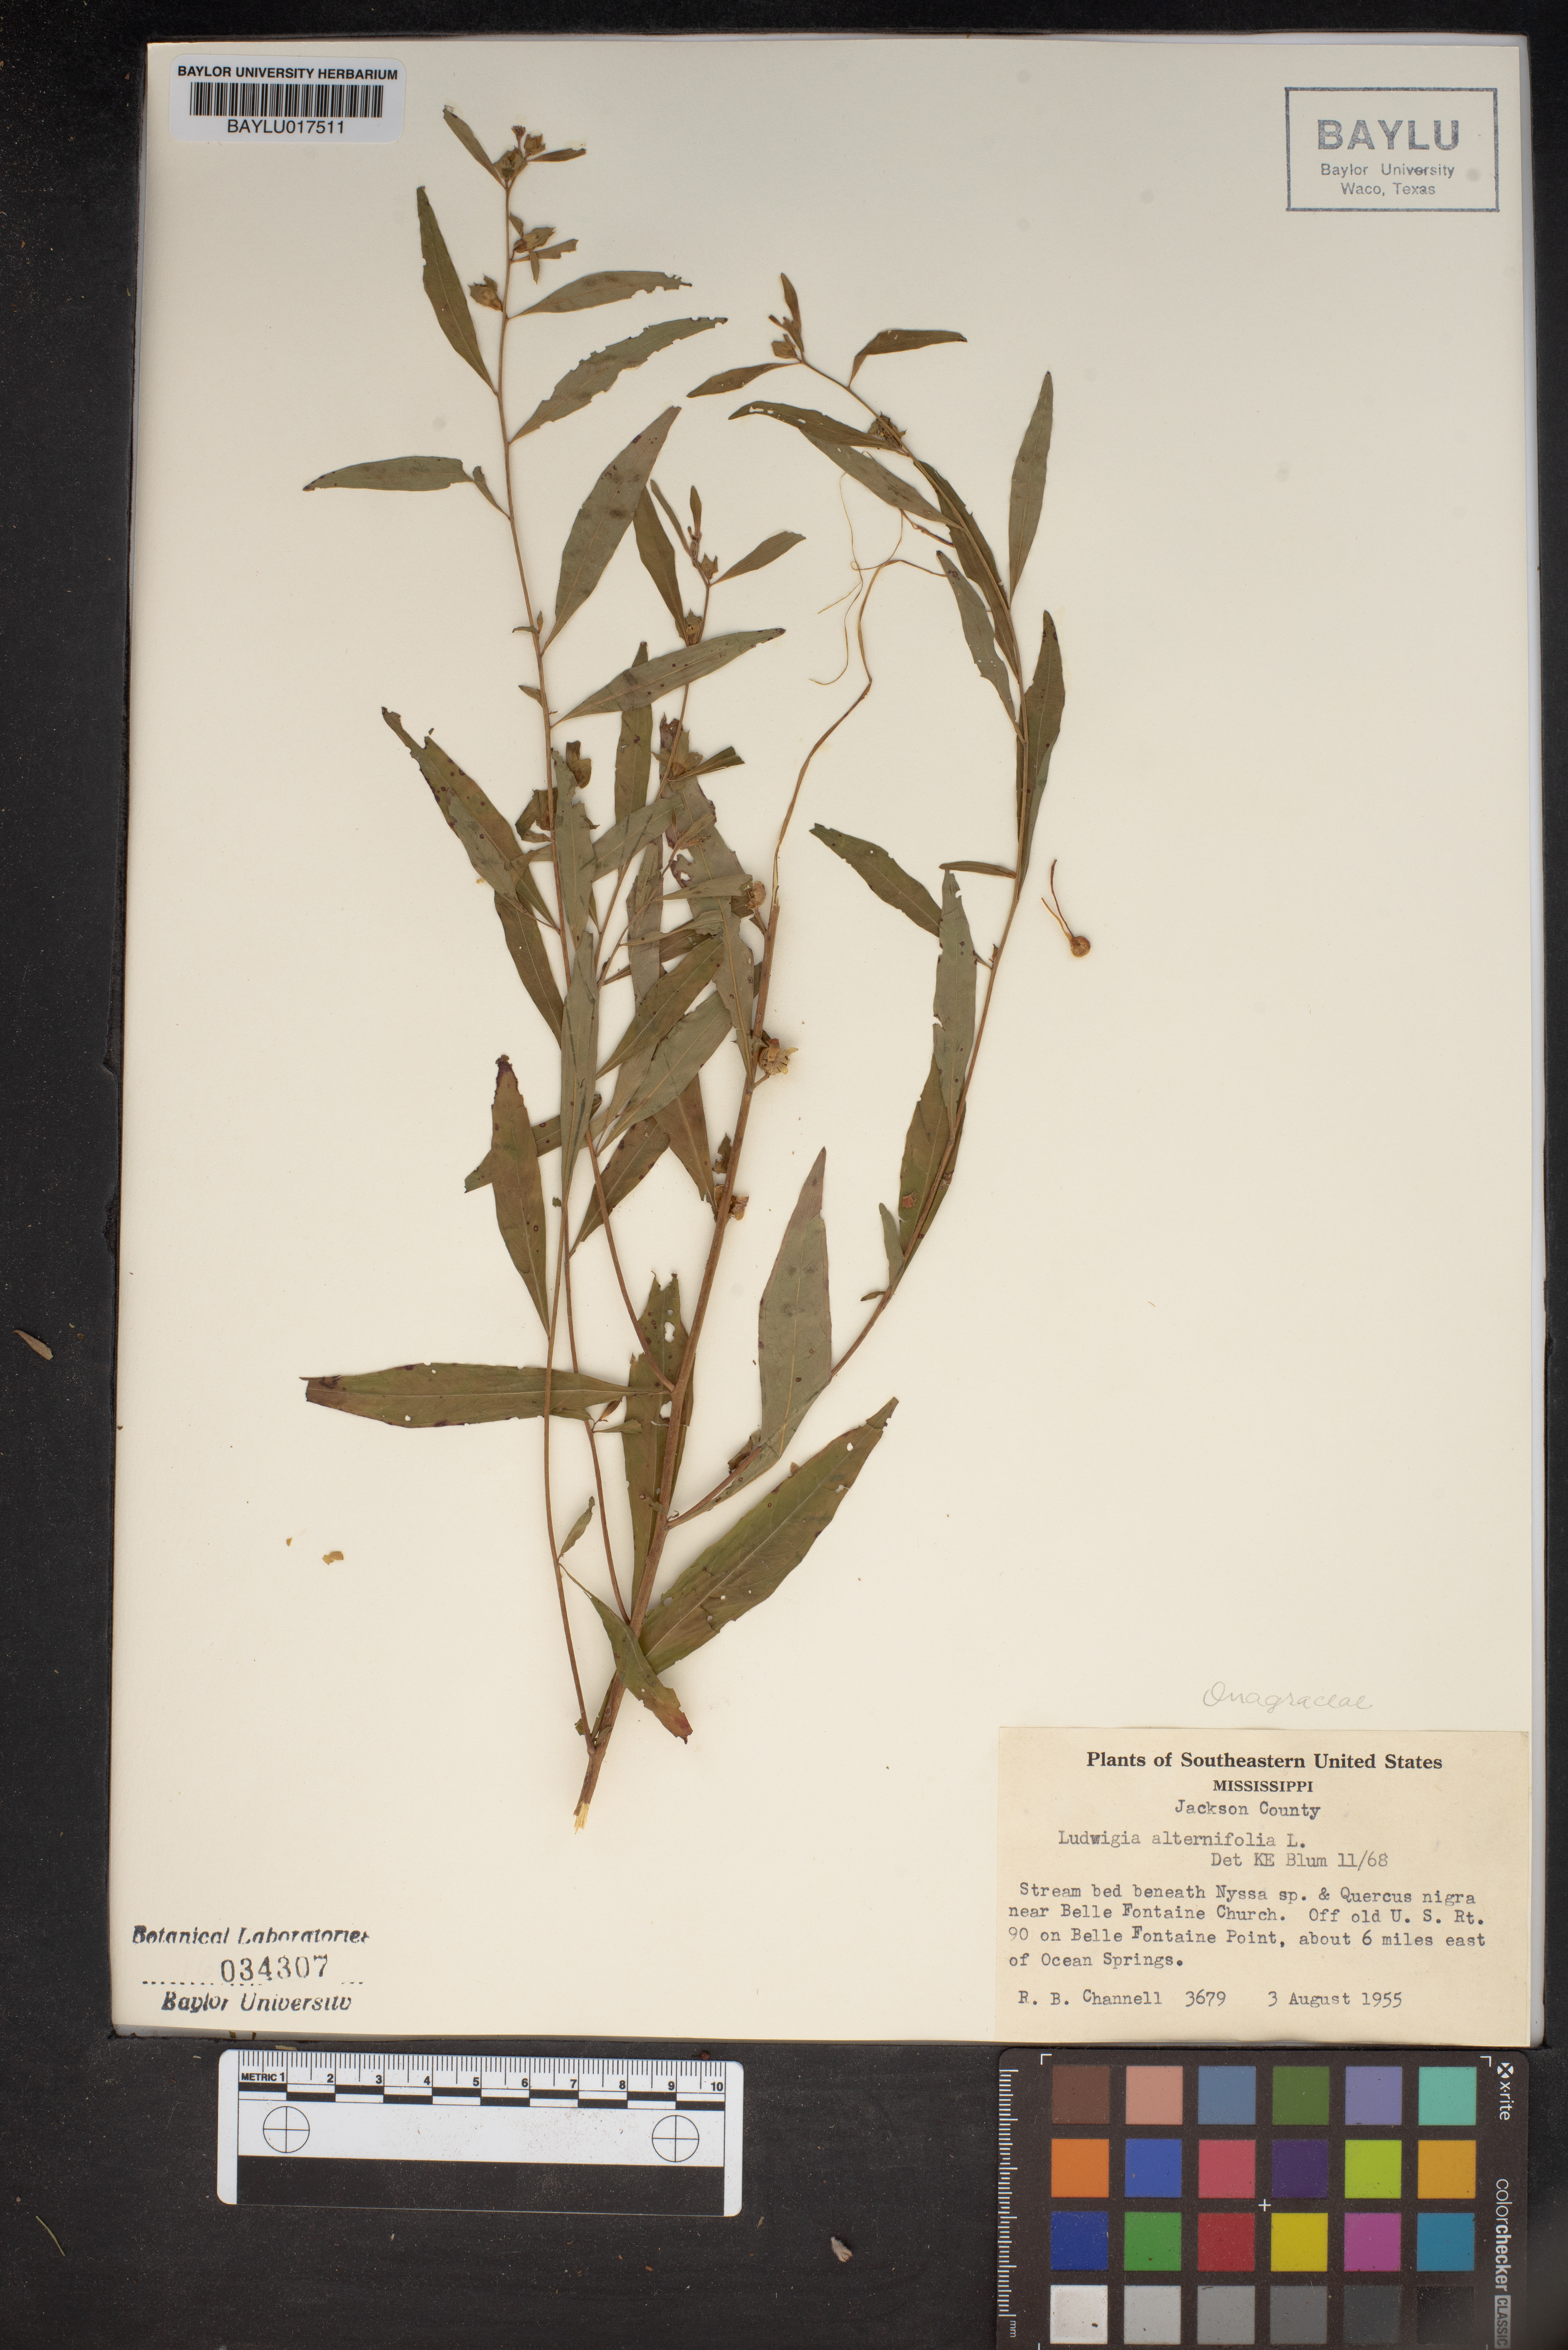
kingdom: Plantae
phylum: Tracheophyta
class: Magnoliopsida
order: Myrtales
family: Onagraceae
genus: Ludwigia
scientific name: Ludwigia alternifolia
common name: Rattlebox
